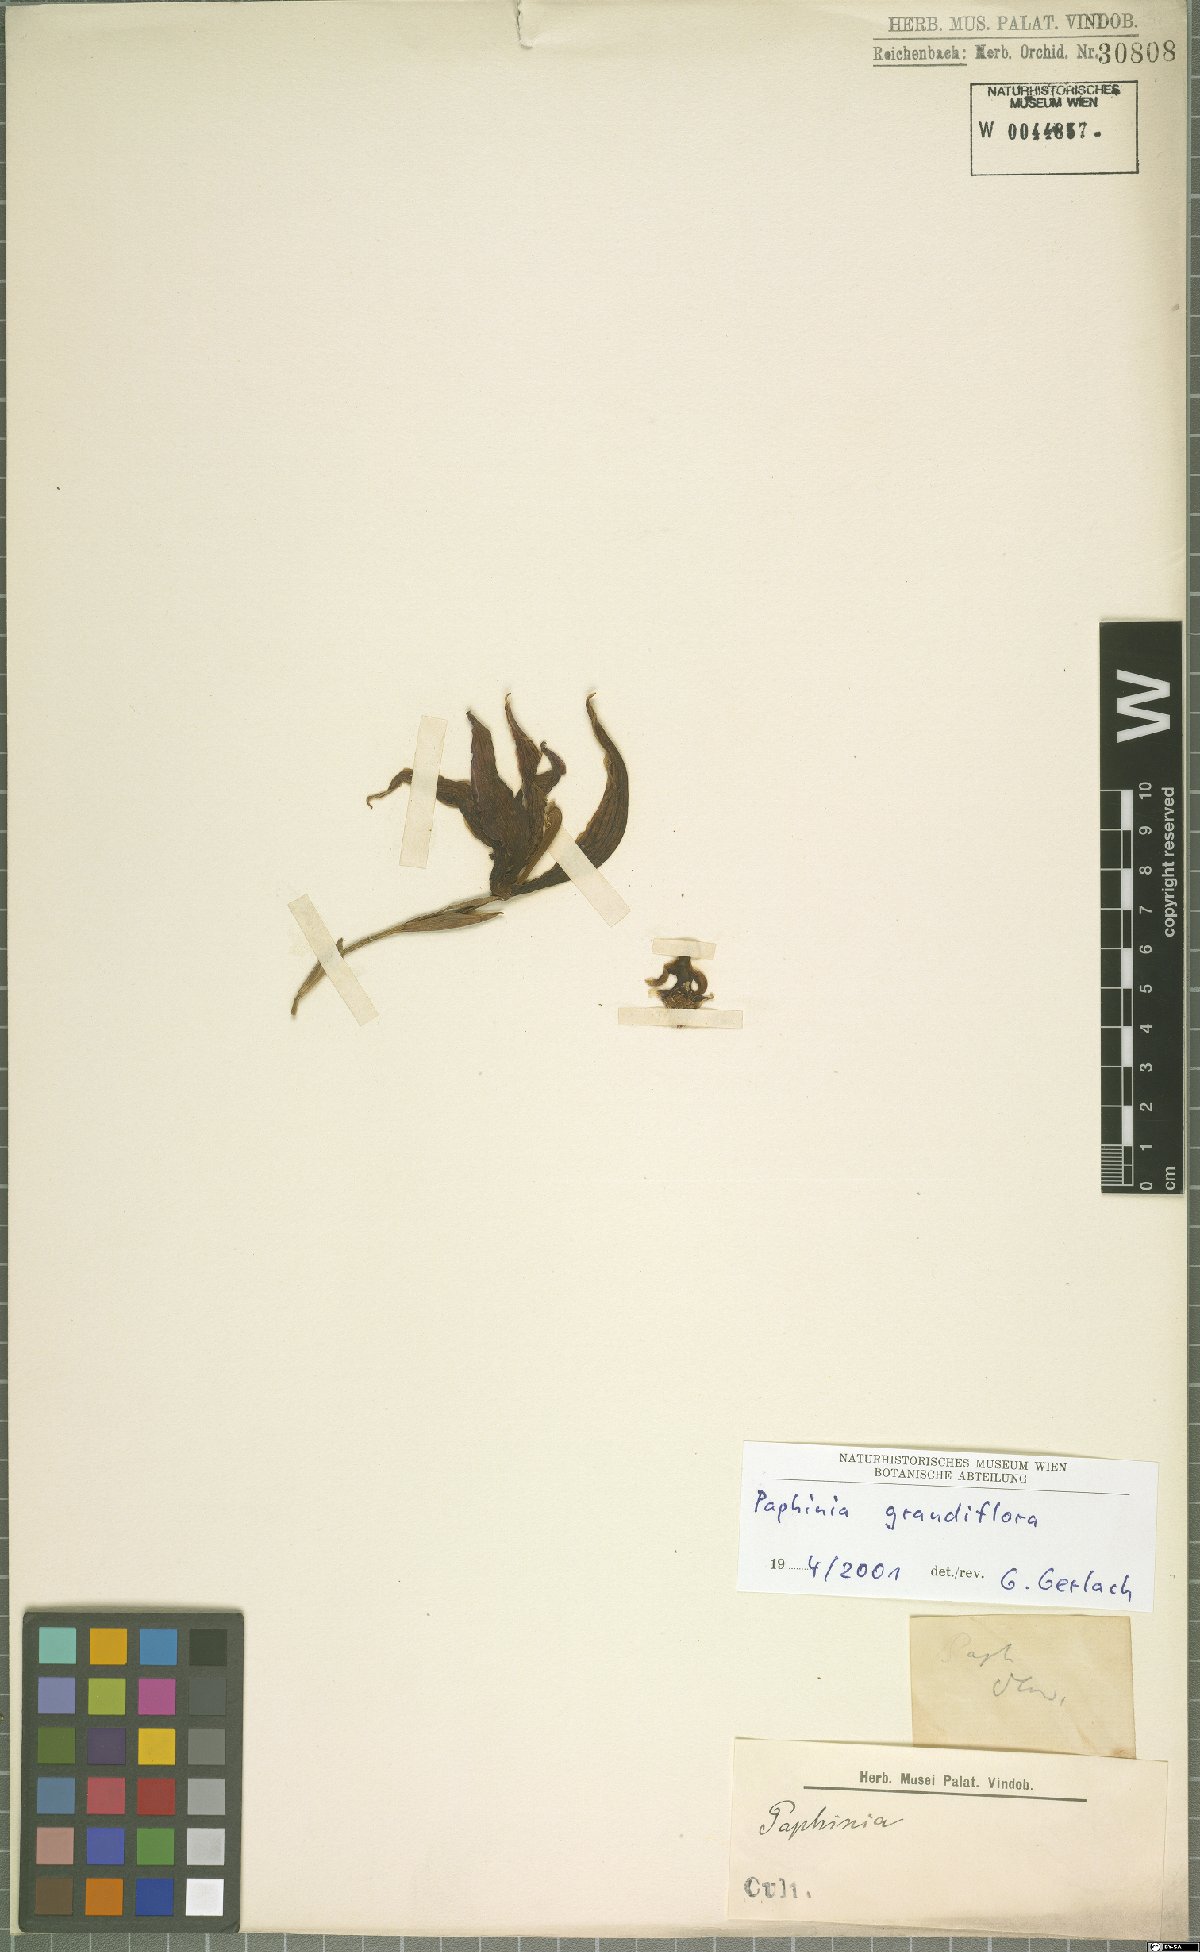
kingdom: Plantae
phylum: Tracheophyta
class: Liliopsida
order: Asparagales
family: Orchidaceae
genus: Paphinia
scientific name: Paphinia grandiflora
